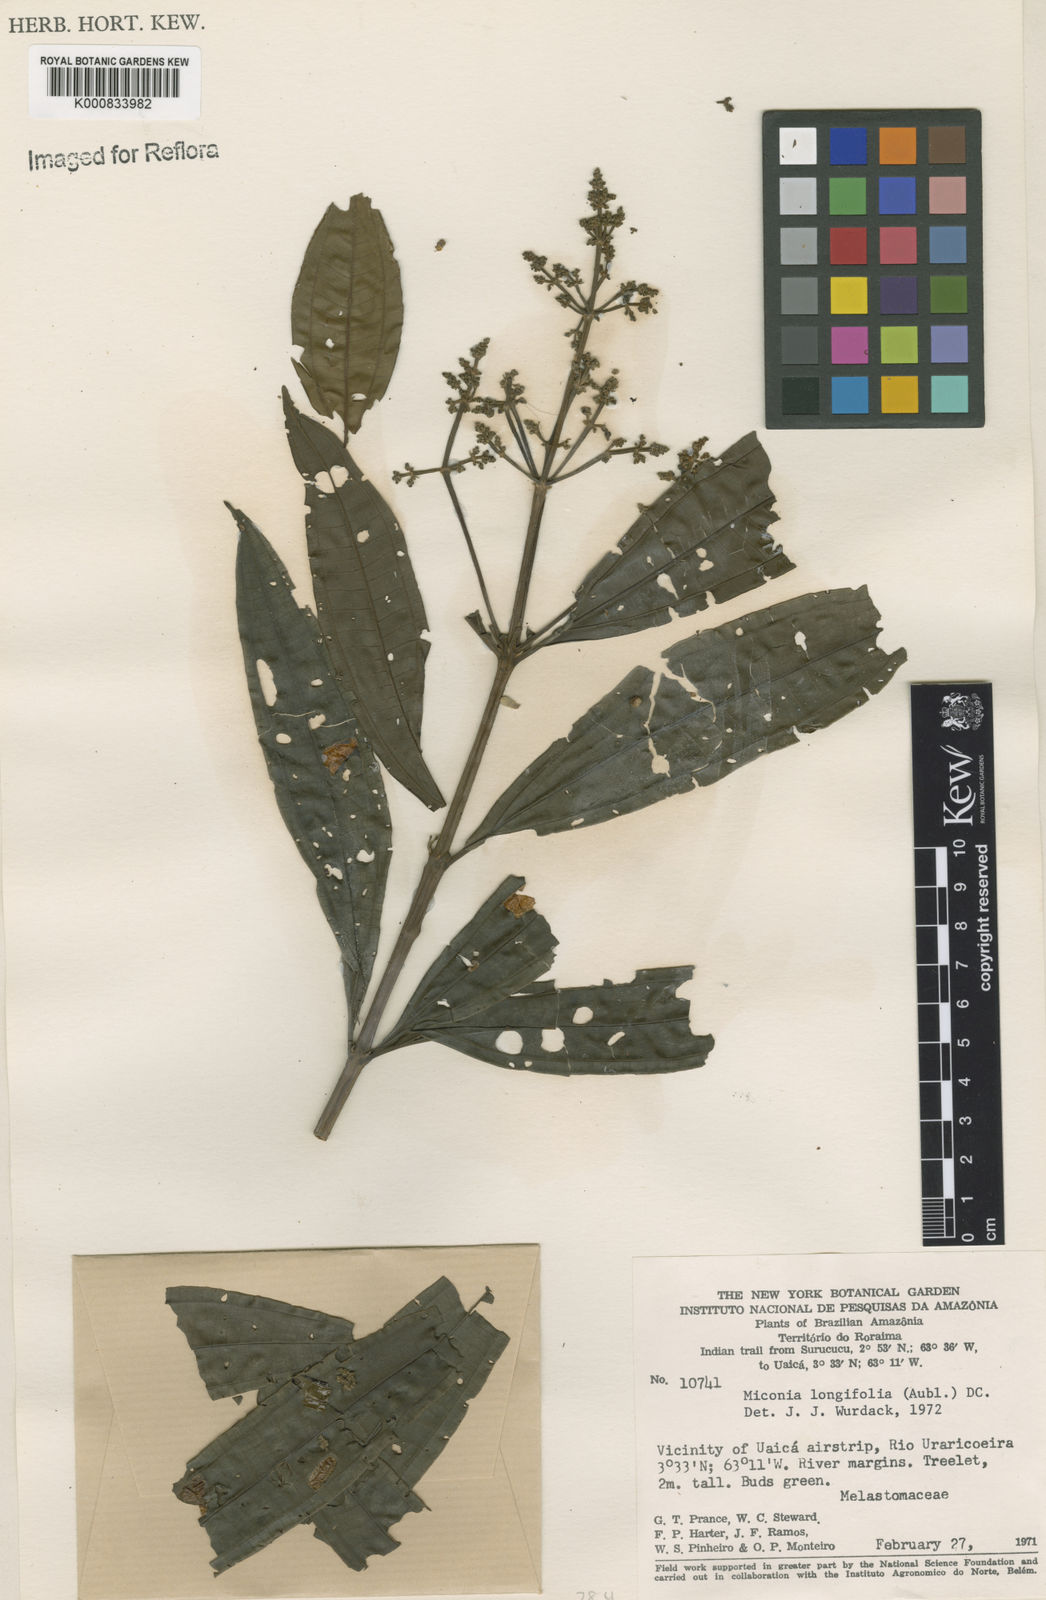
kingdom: Plantae
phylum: Tracheophyta
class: Magnoliopsida
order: Myrtales
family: Melastomataceae
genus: Miconia
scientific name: Miconia longifolia
